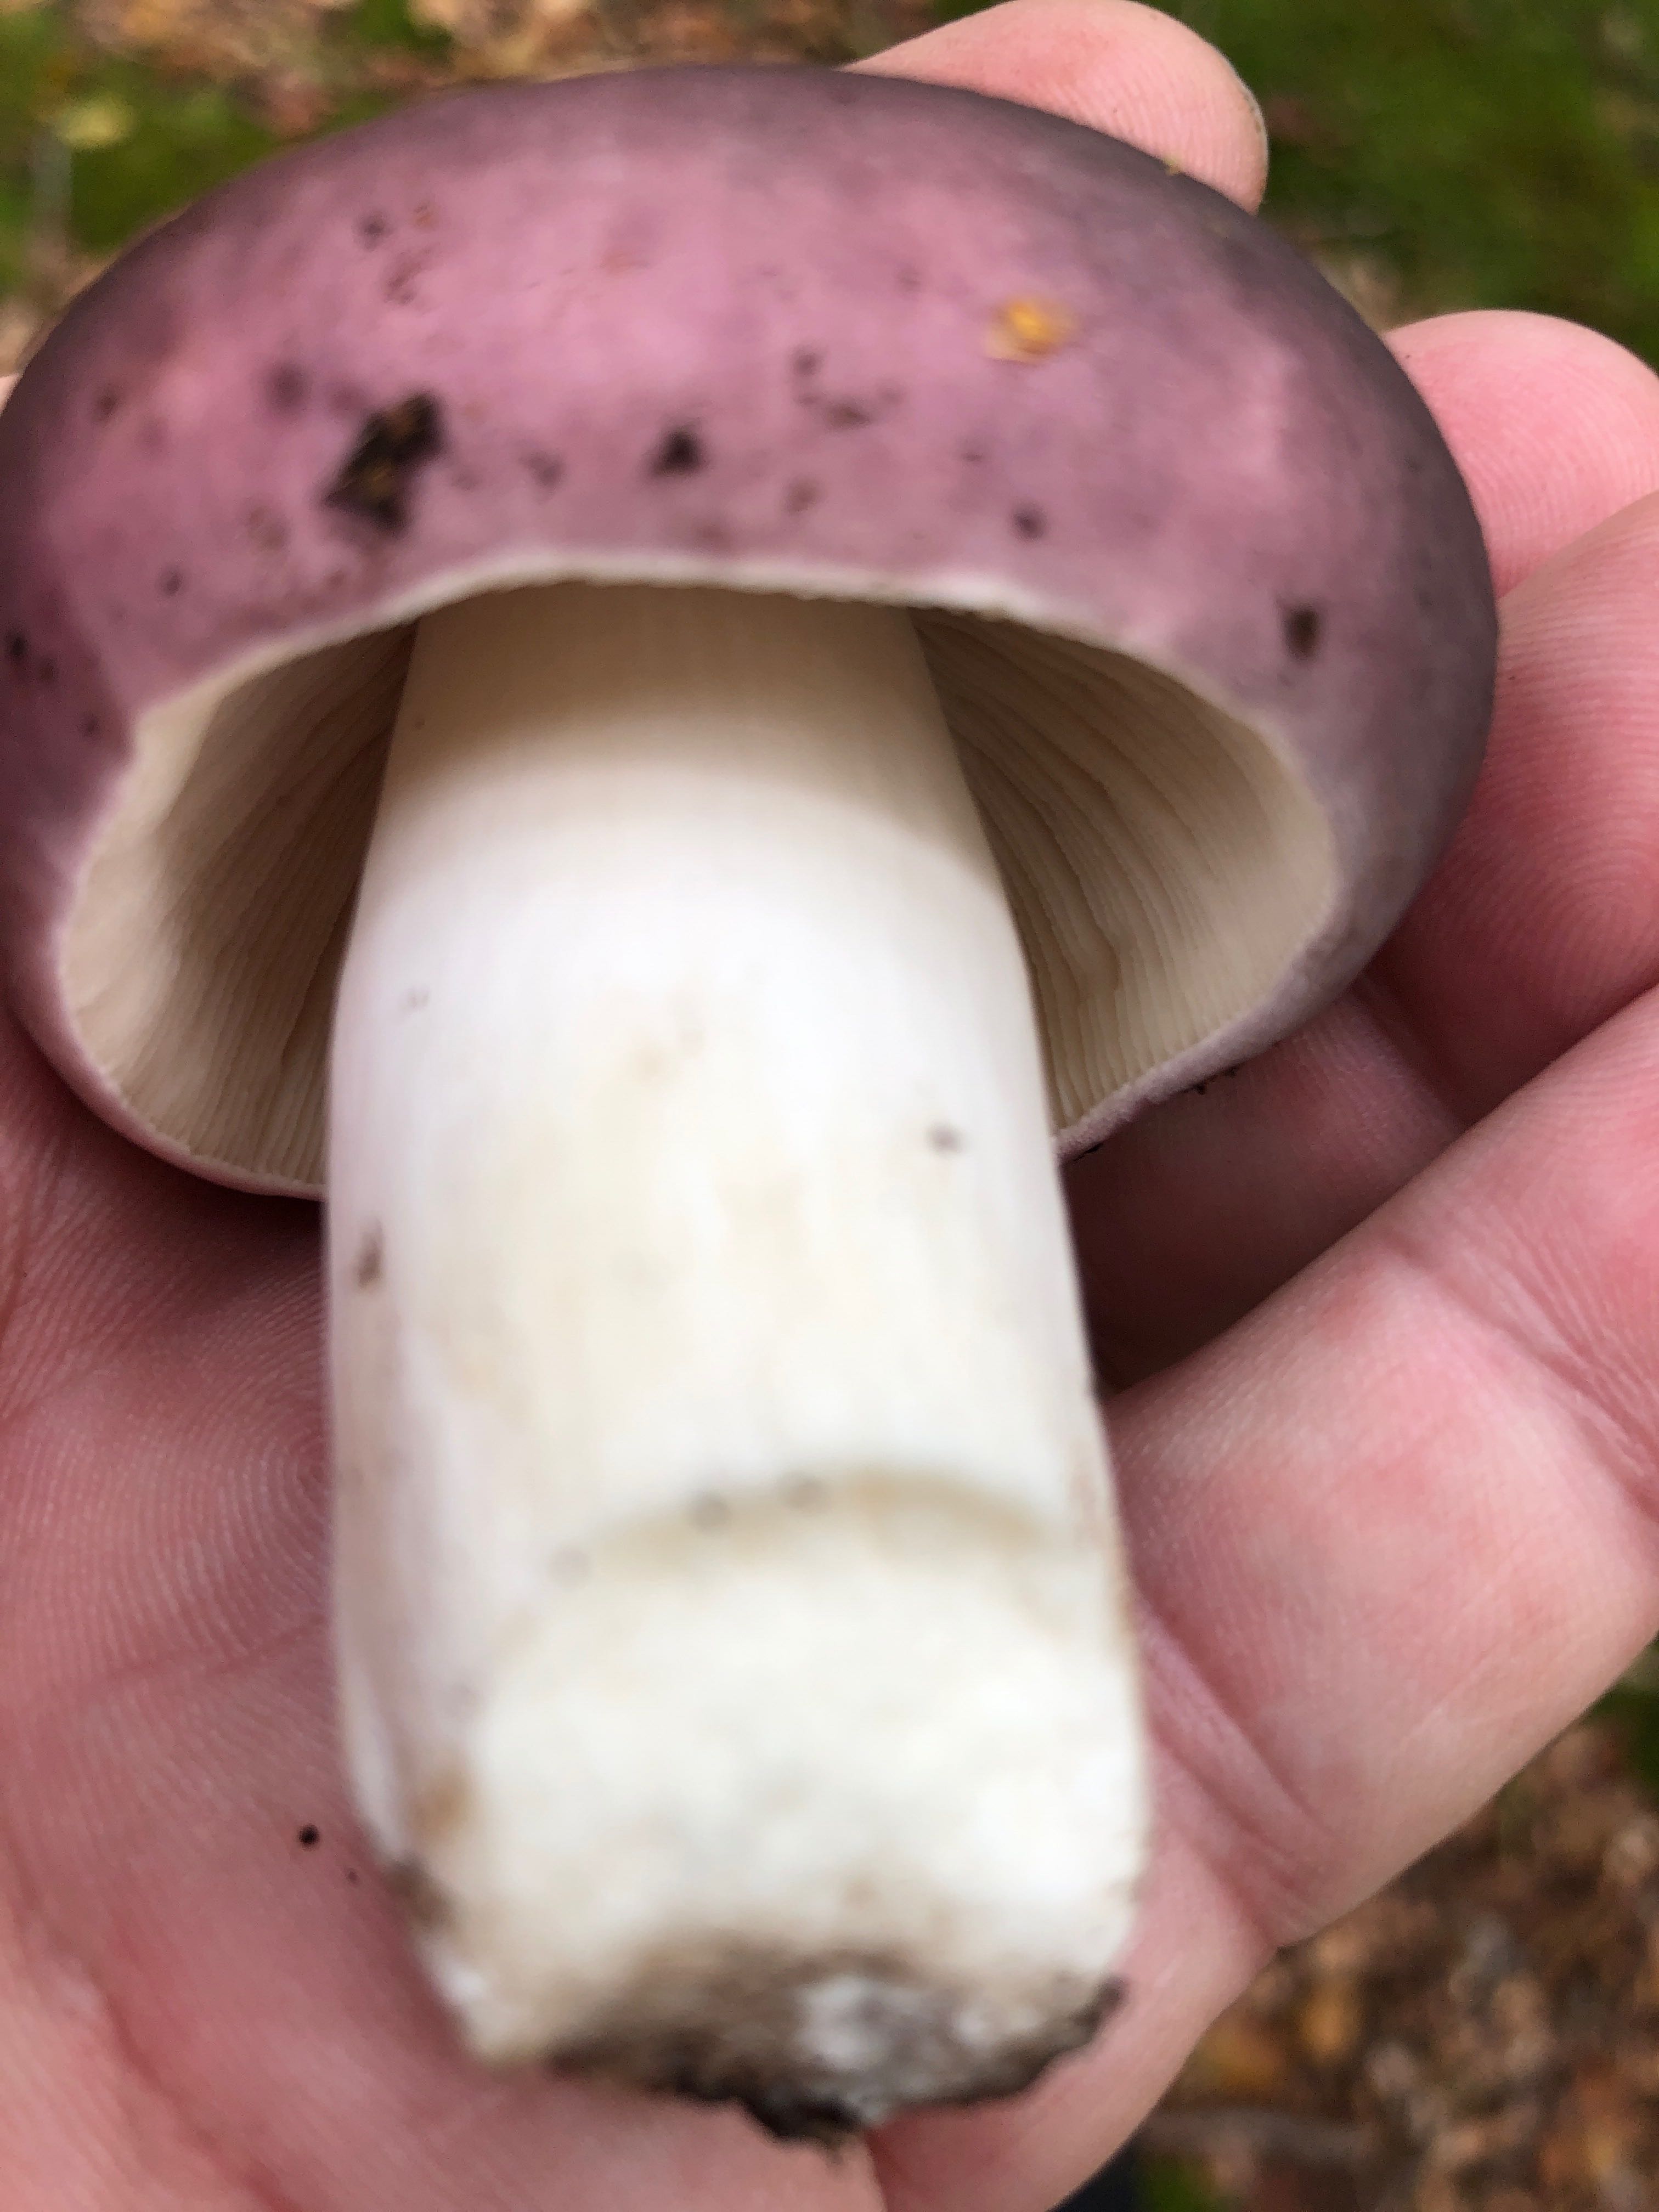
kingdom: Fungi
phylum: Basidiomycota
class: Agaricomycetes
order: Russulales
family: Russulaceae
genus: Russula
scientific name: Russula cyanoxantha
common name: broget skørhat
